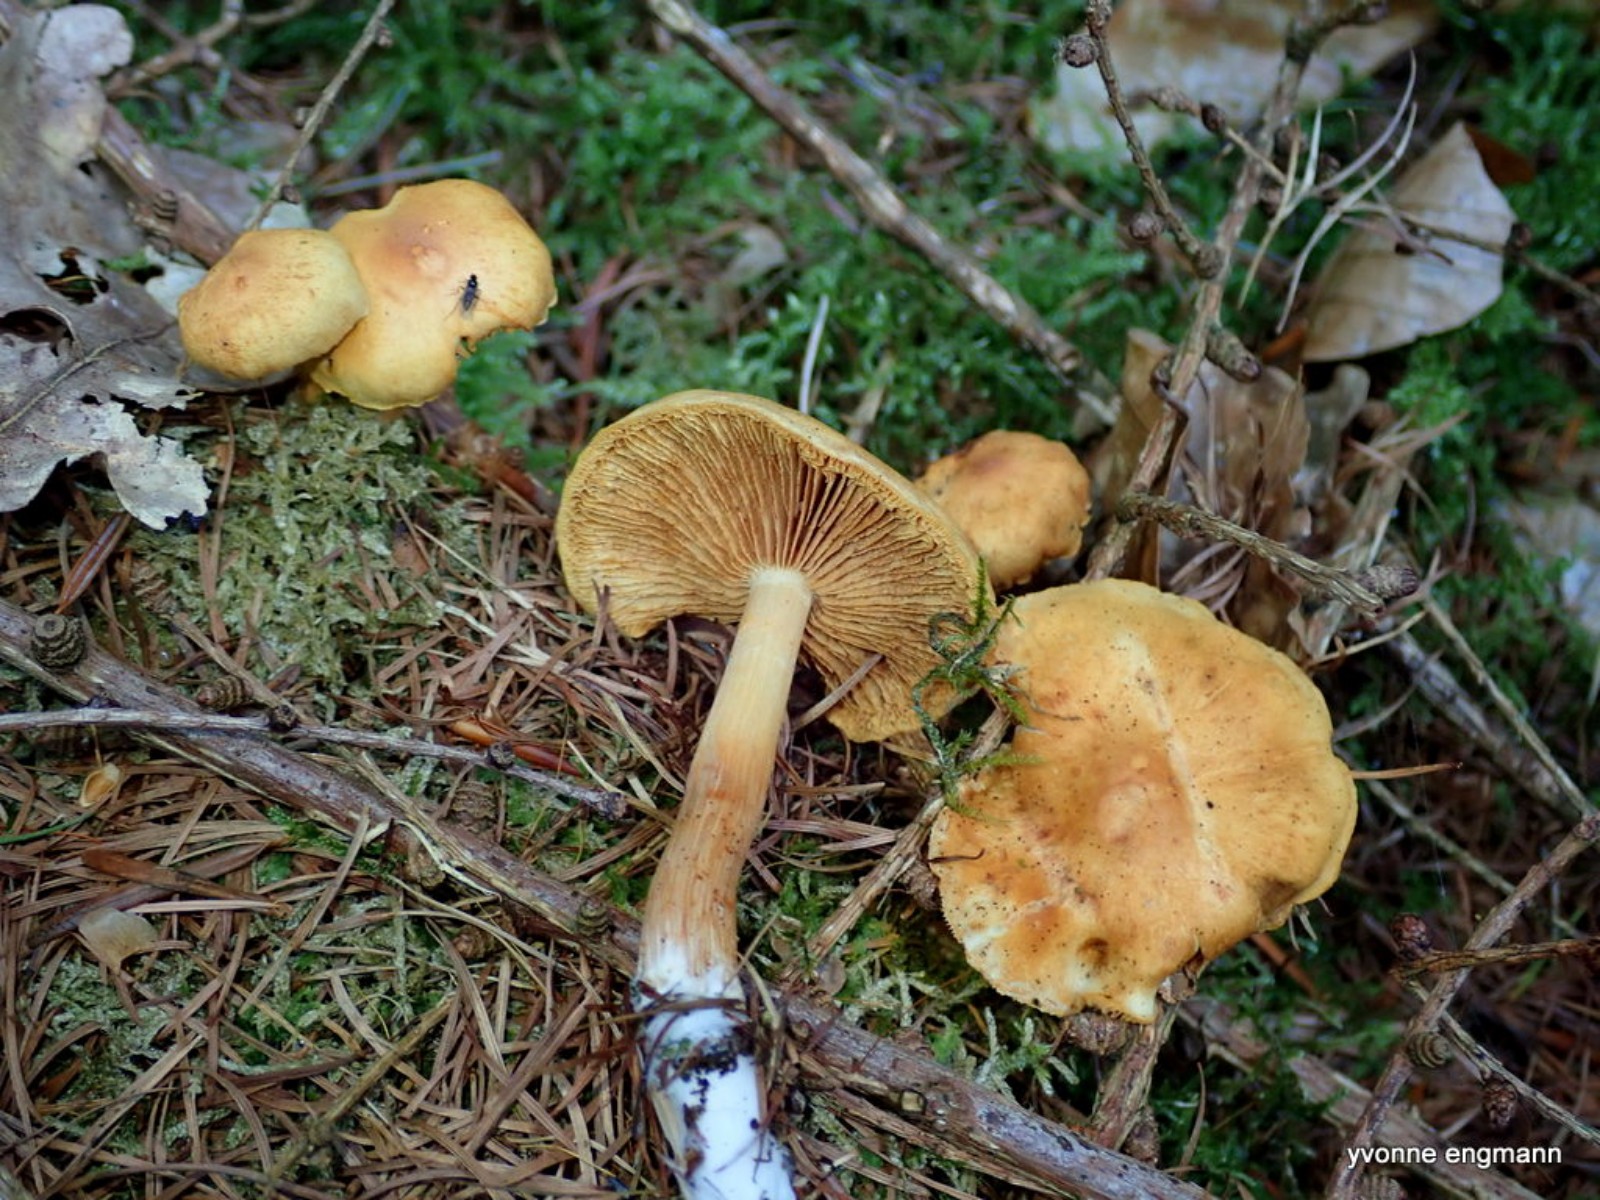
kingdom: Fungi
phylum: Basidiomycota
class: Agaricomycetes
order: Agaricales
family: Hymenogastraceae
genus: Gymnopilus
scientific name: Gymnopilus penetrans
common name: plettet flammehat
